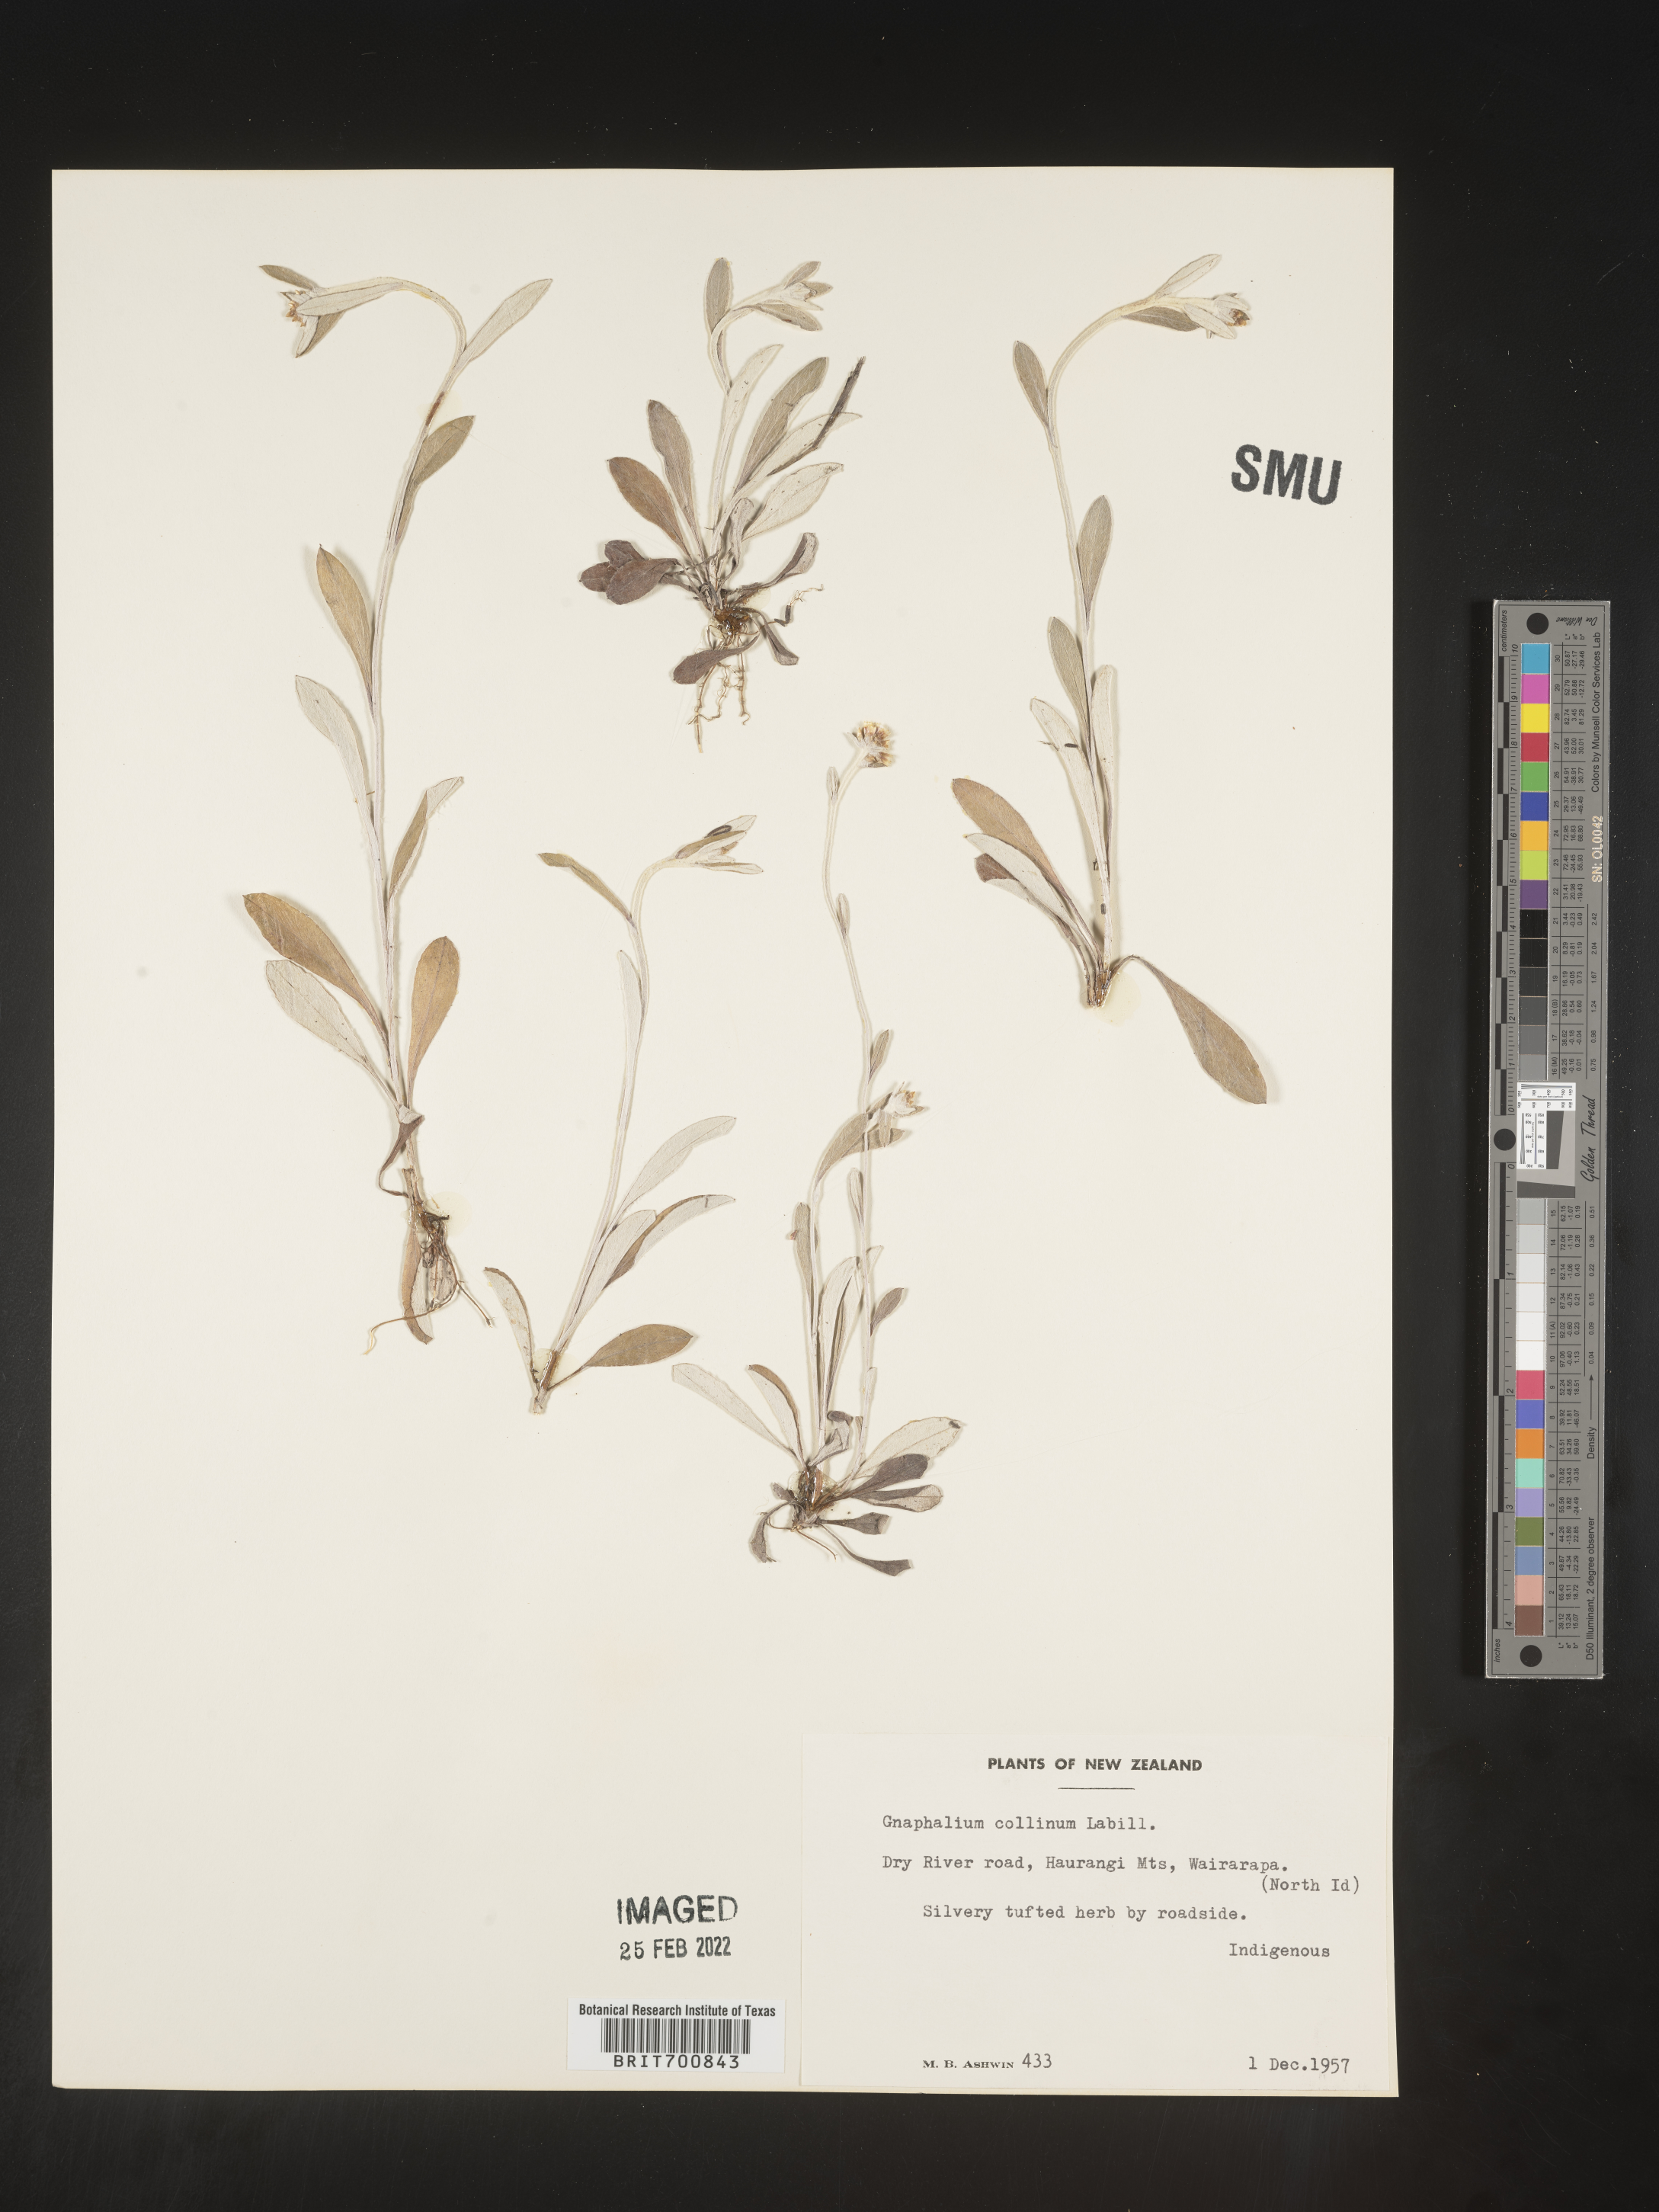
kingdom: Plantae
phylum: Tracheophyta
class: Magnoliopsida
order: Asterales
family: Asteraceae
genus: Euchiton
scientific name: Euchiton
